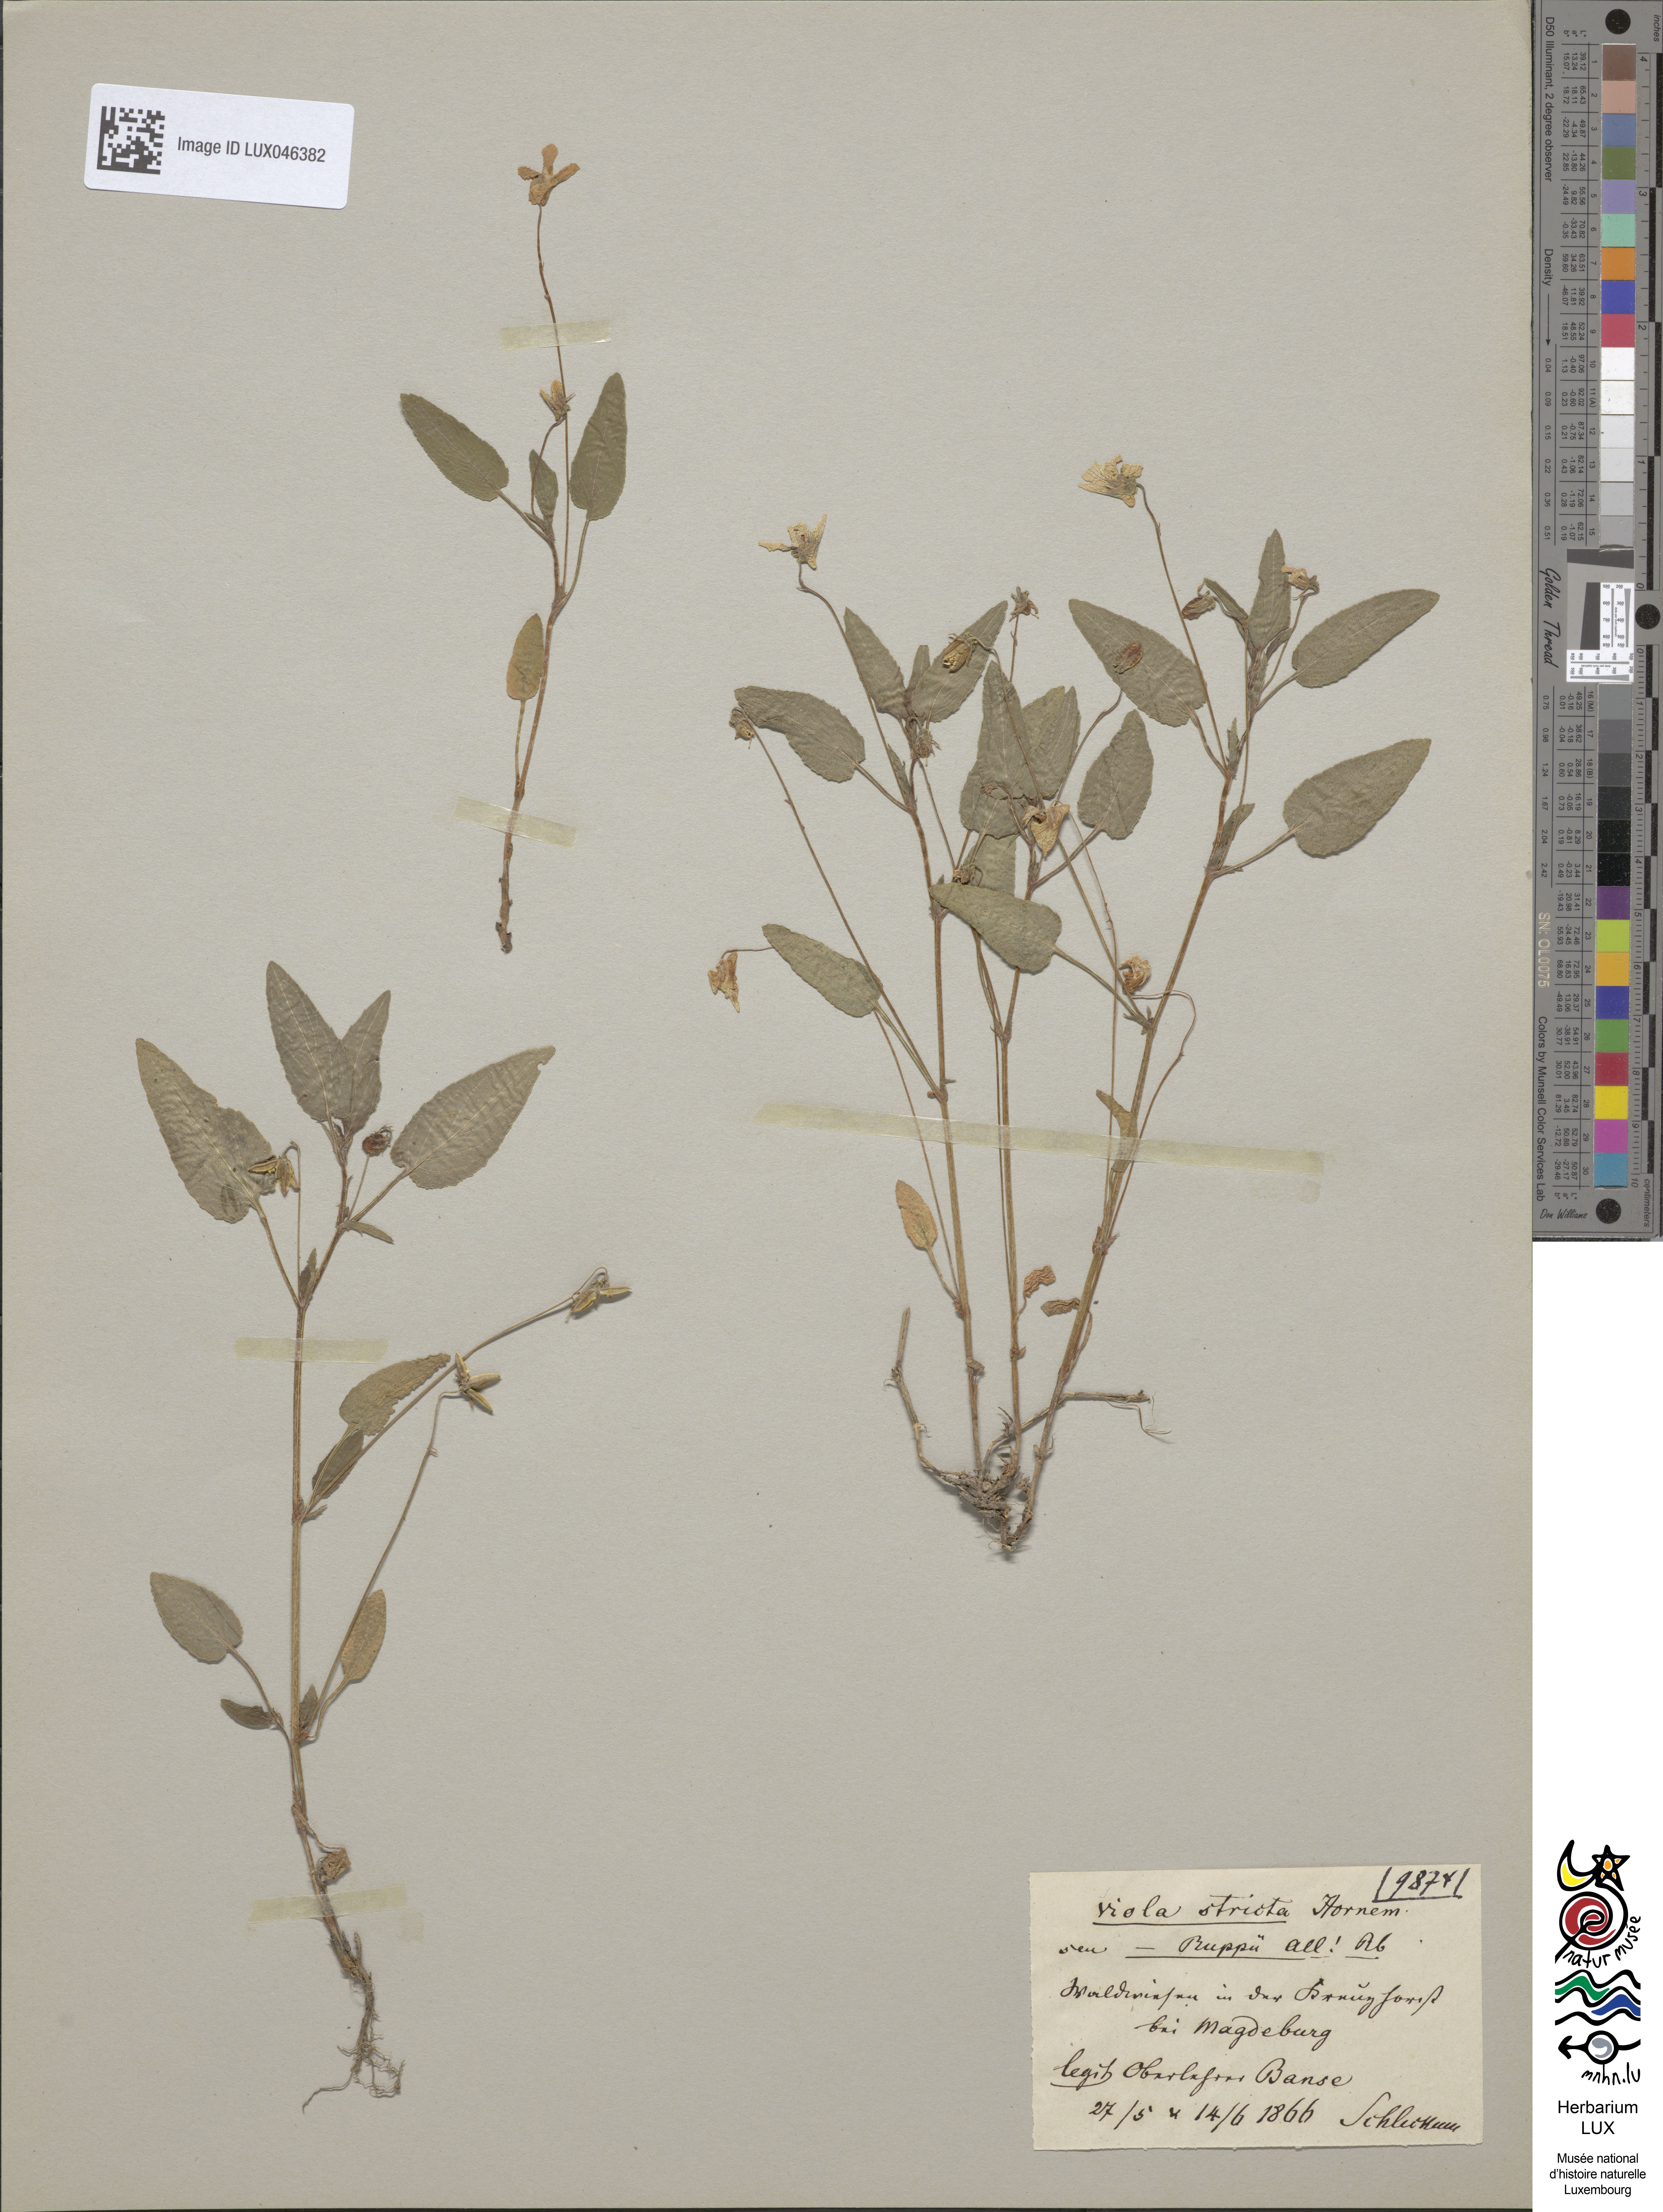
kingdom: Plantae
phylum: Tracheophyta
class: Magnoliopsida
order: Malpighiales
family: Violaceae
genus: Viola
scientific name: Viola stagnina
